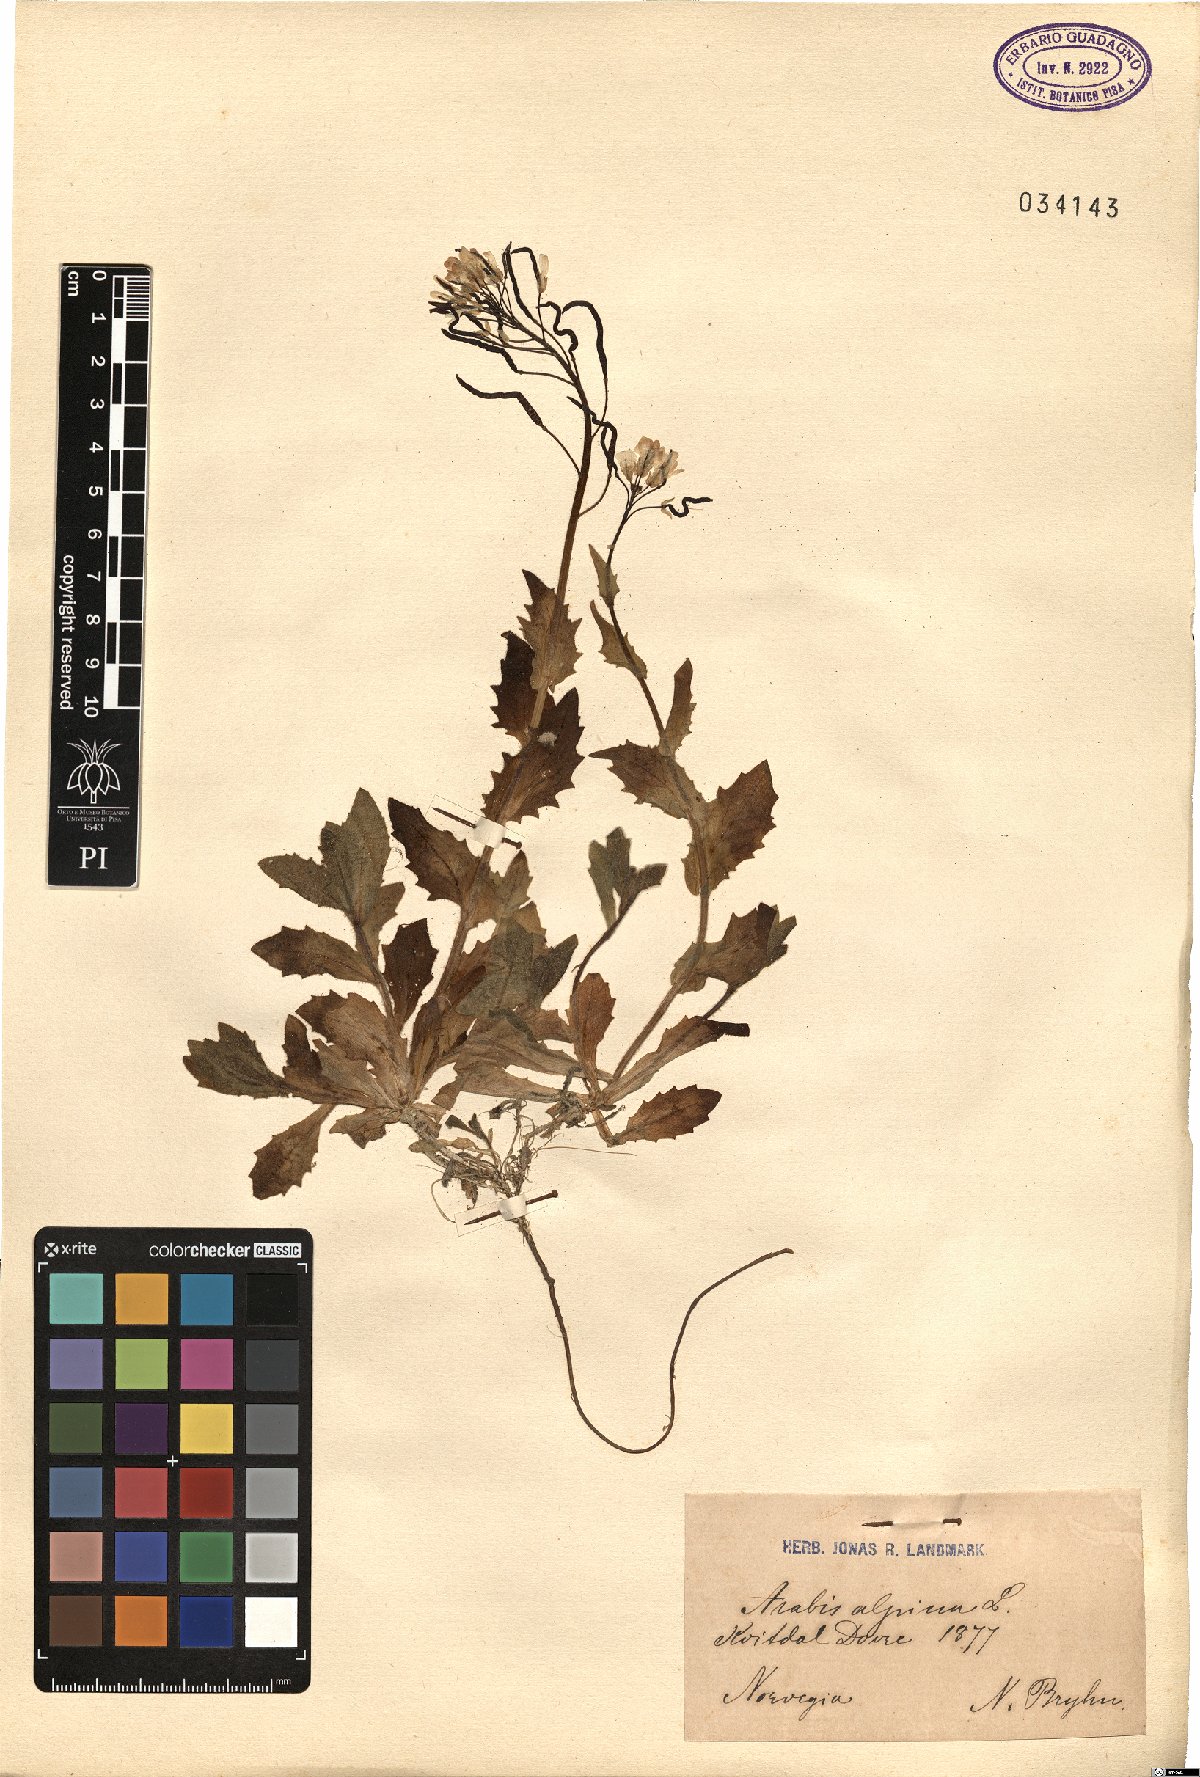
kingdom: Plantae
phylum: Tracheophyta
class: Magnoliopsida
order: Brassicales
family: Brassicaceae
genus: Arabis
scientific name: Arabis alpina
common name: Alpine rock-cress
